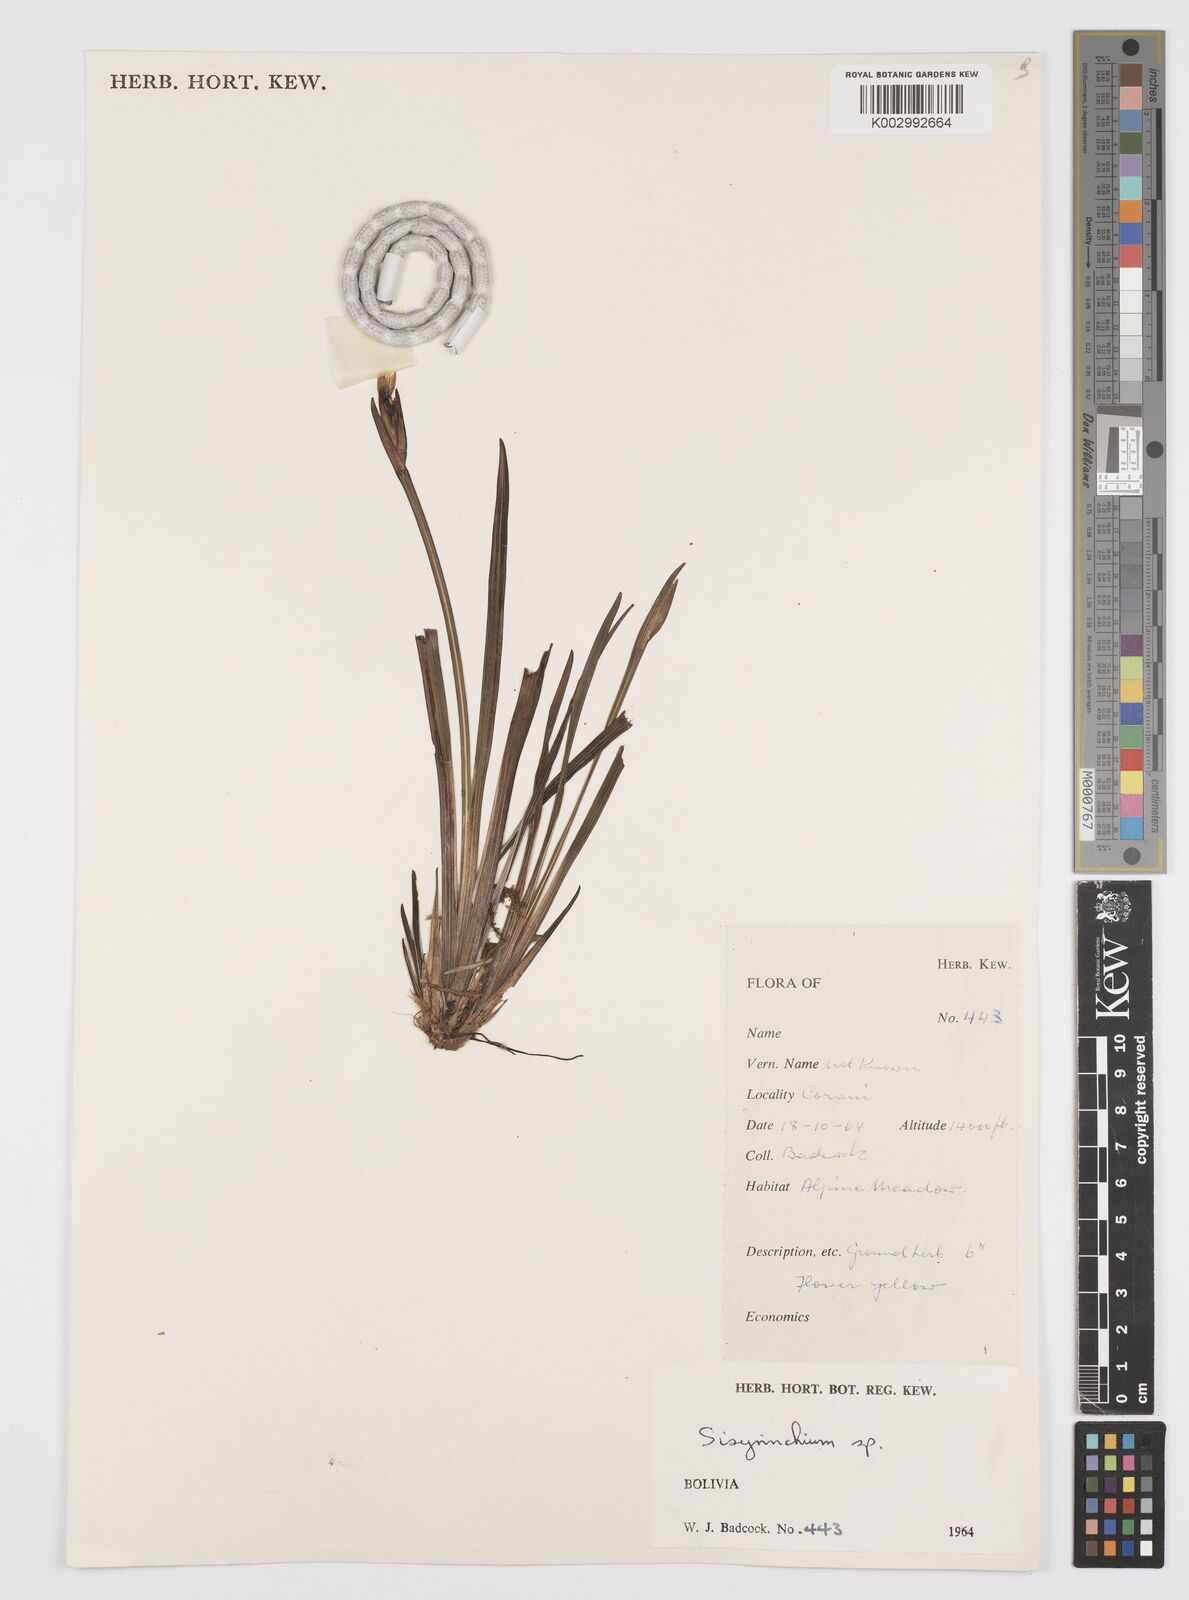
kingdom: Plantae
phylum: Tracheophyta
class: Liliopsida
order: Asparagales
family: Iridaceae
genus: Sisyrinchium
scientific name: Sisyrinchium
